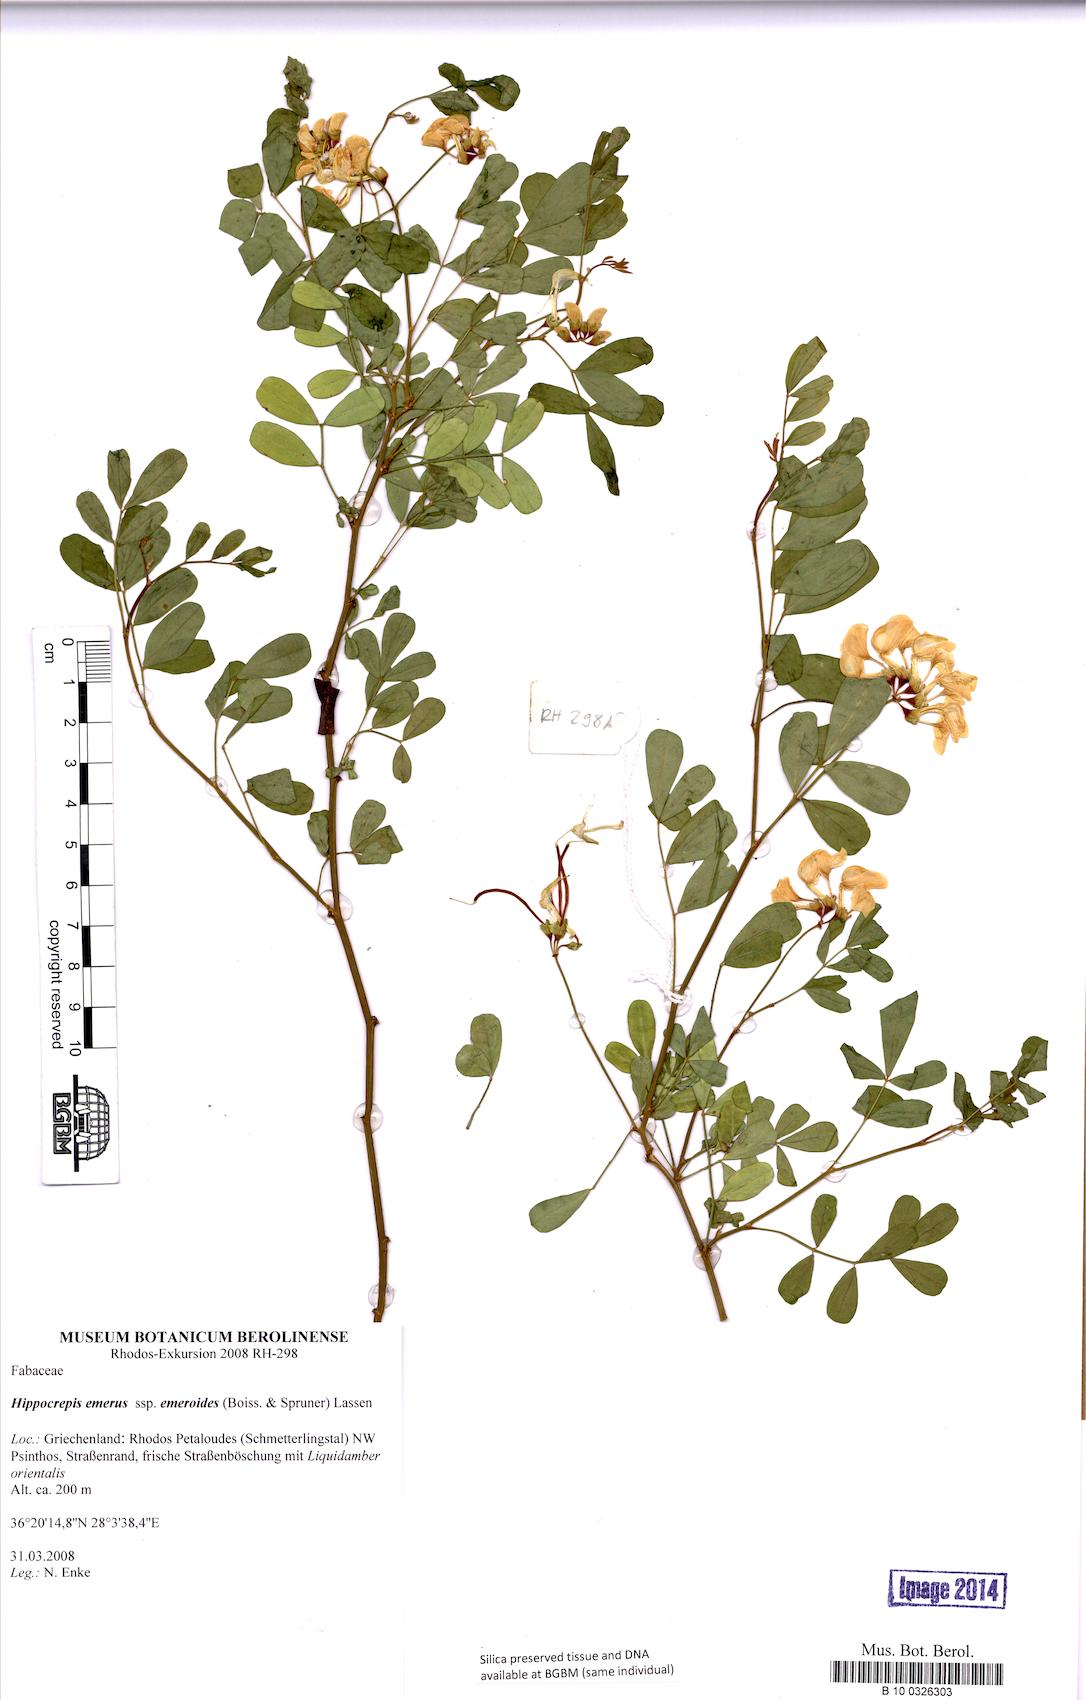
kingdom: Plantae
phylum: Tracheophyta
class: Magnoliopsida
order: Fabales
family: Fabaceae
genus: Hippocrepis
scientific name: Hippocrepis emerus
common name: Scorpion senna
